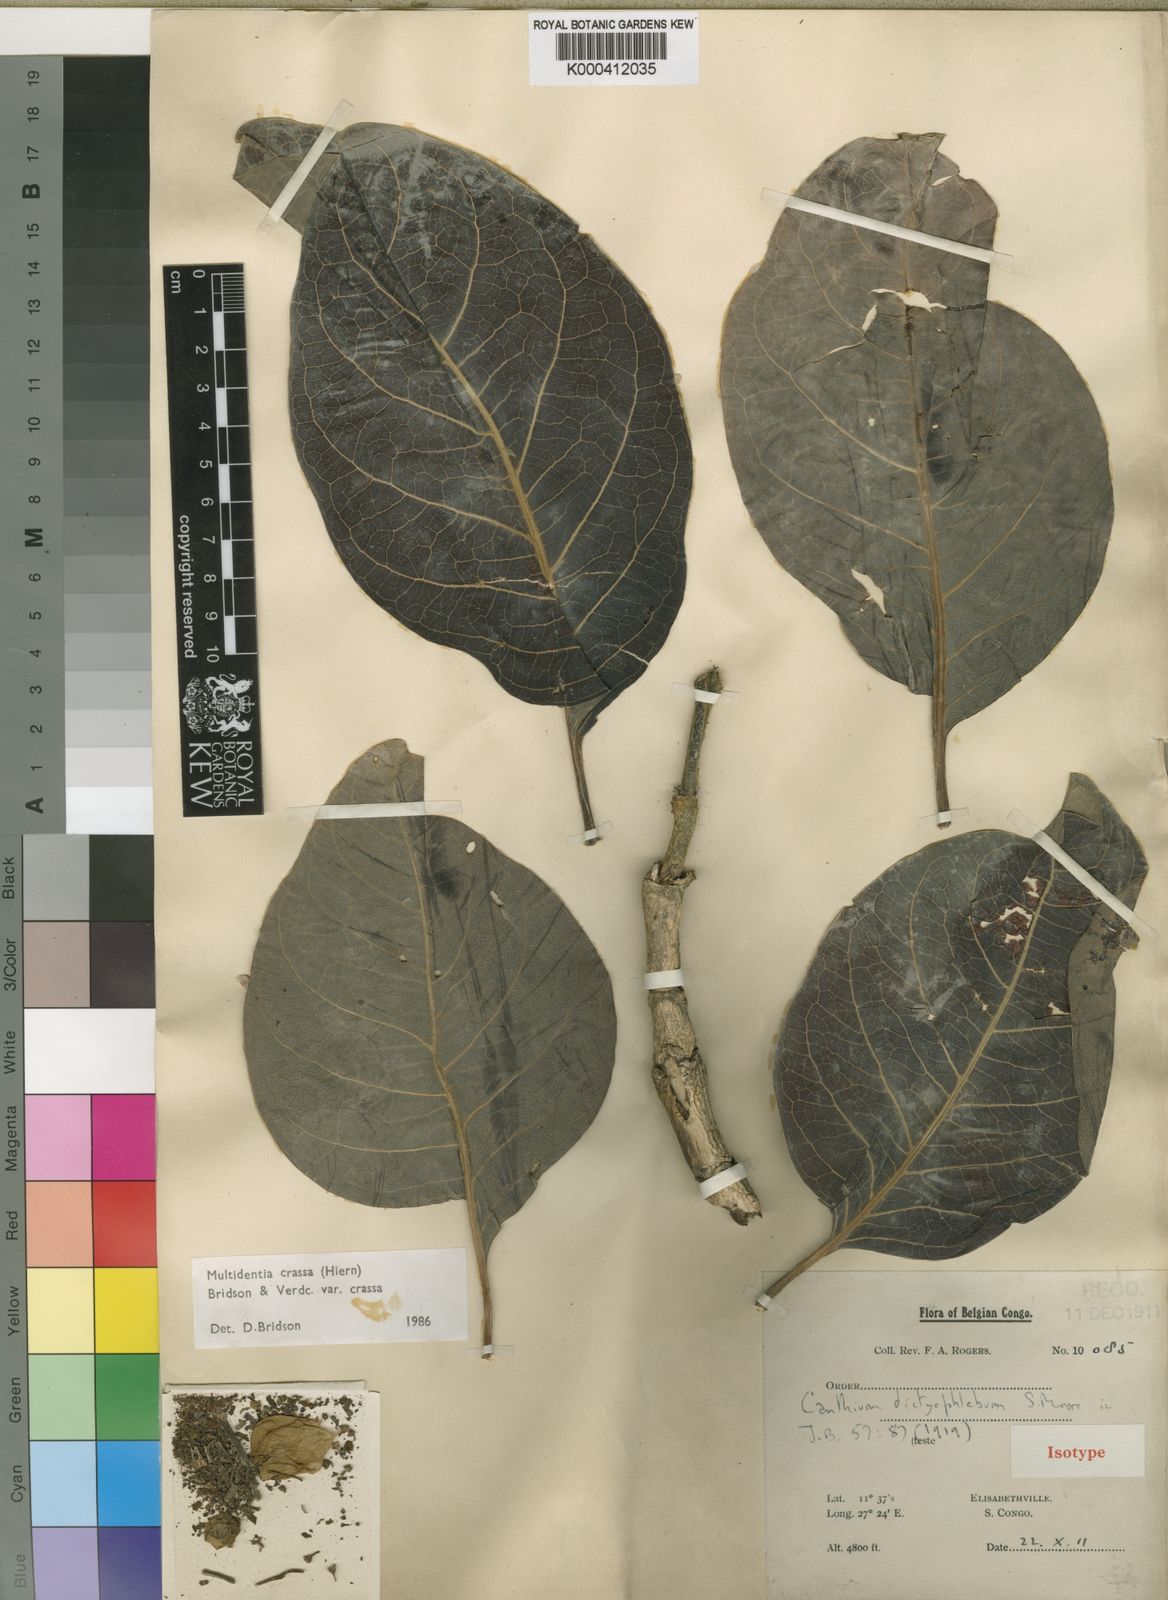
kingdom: Plantae
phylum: Tracheophyta
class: Magnoliopsida
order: Gentianales
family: Rubiaceae
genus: Multidentia
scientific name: Multidentia crassa
